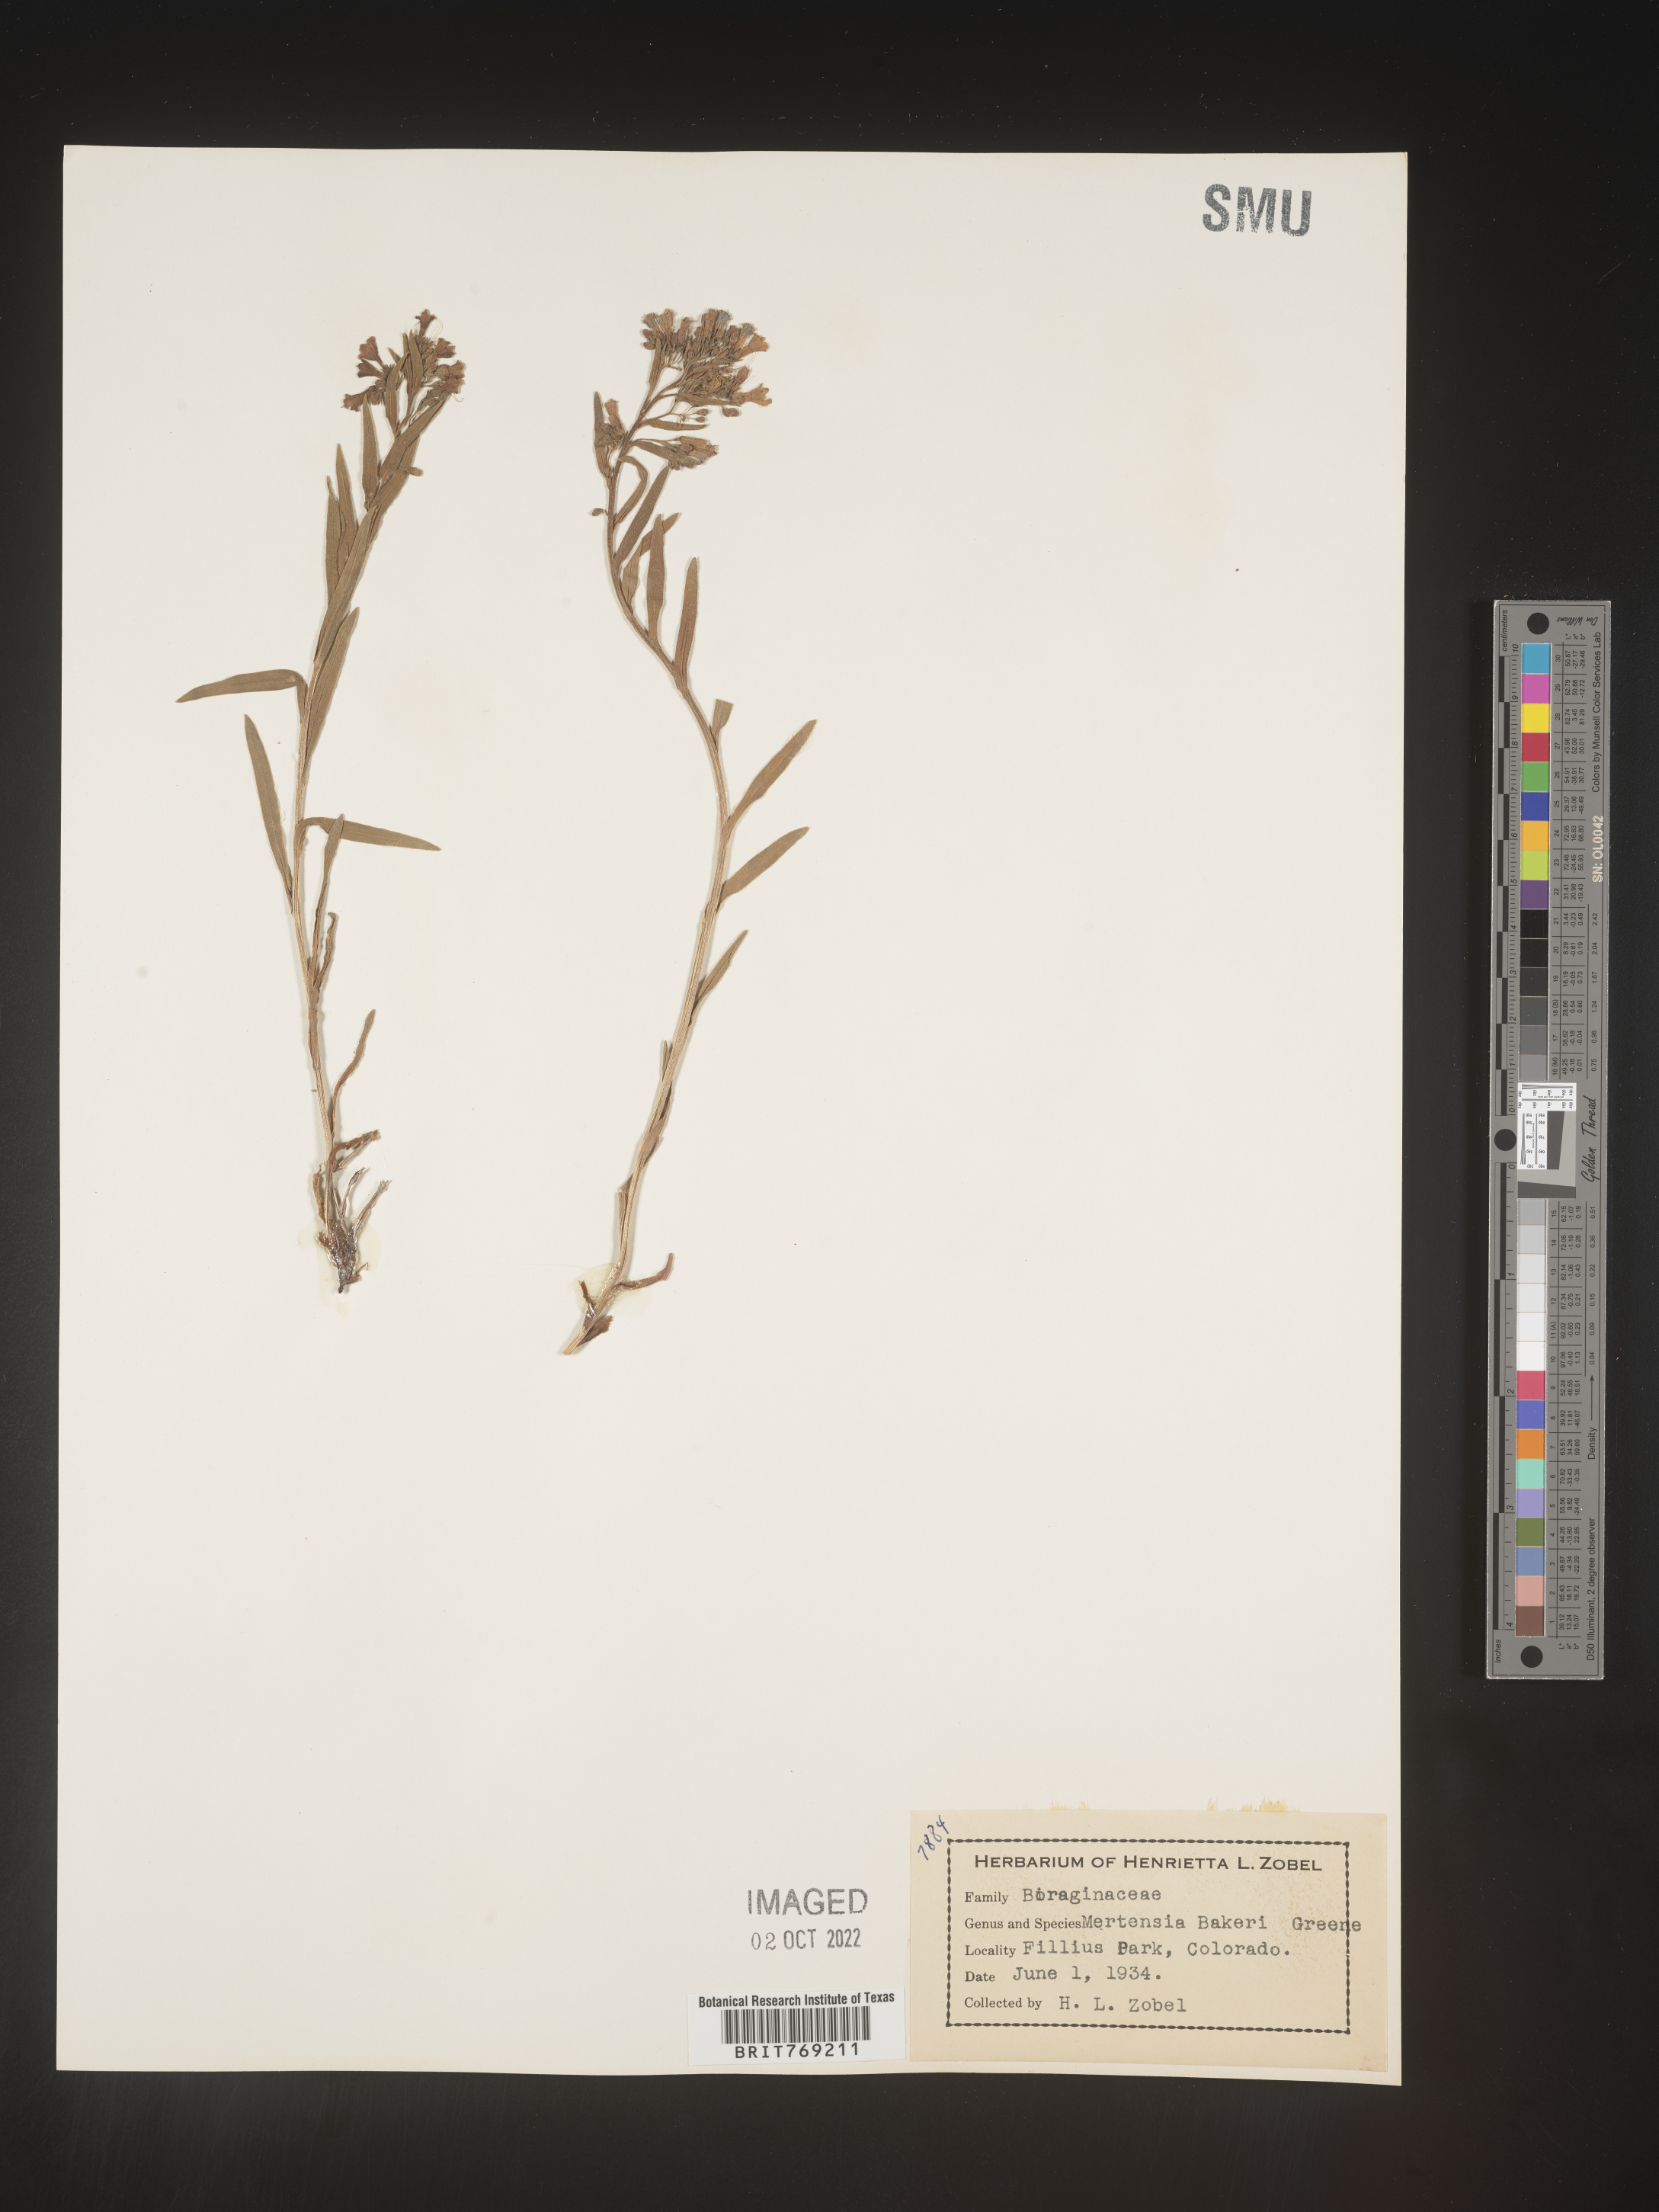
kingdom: Plantae
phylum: Tracheophyta
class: Magnoliopsida
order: Boraginales
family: Boraginaceae
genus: Mertensia
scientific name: Mertensia
